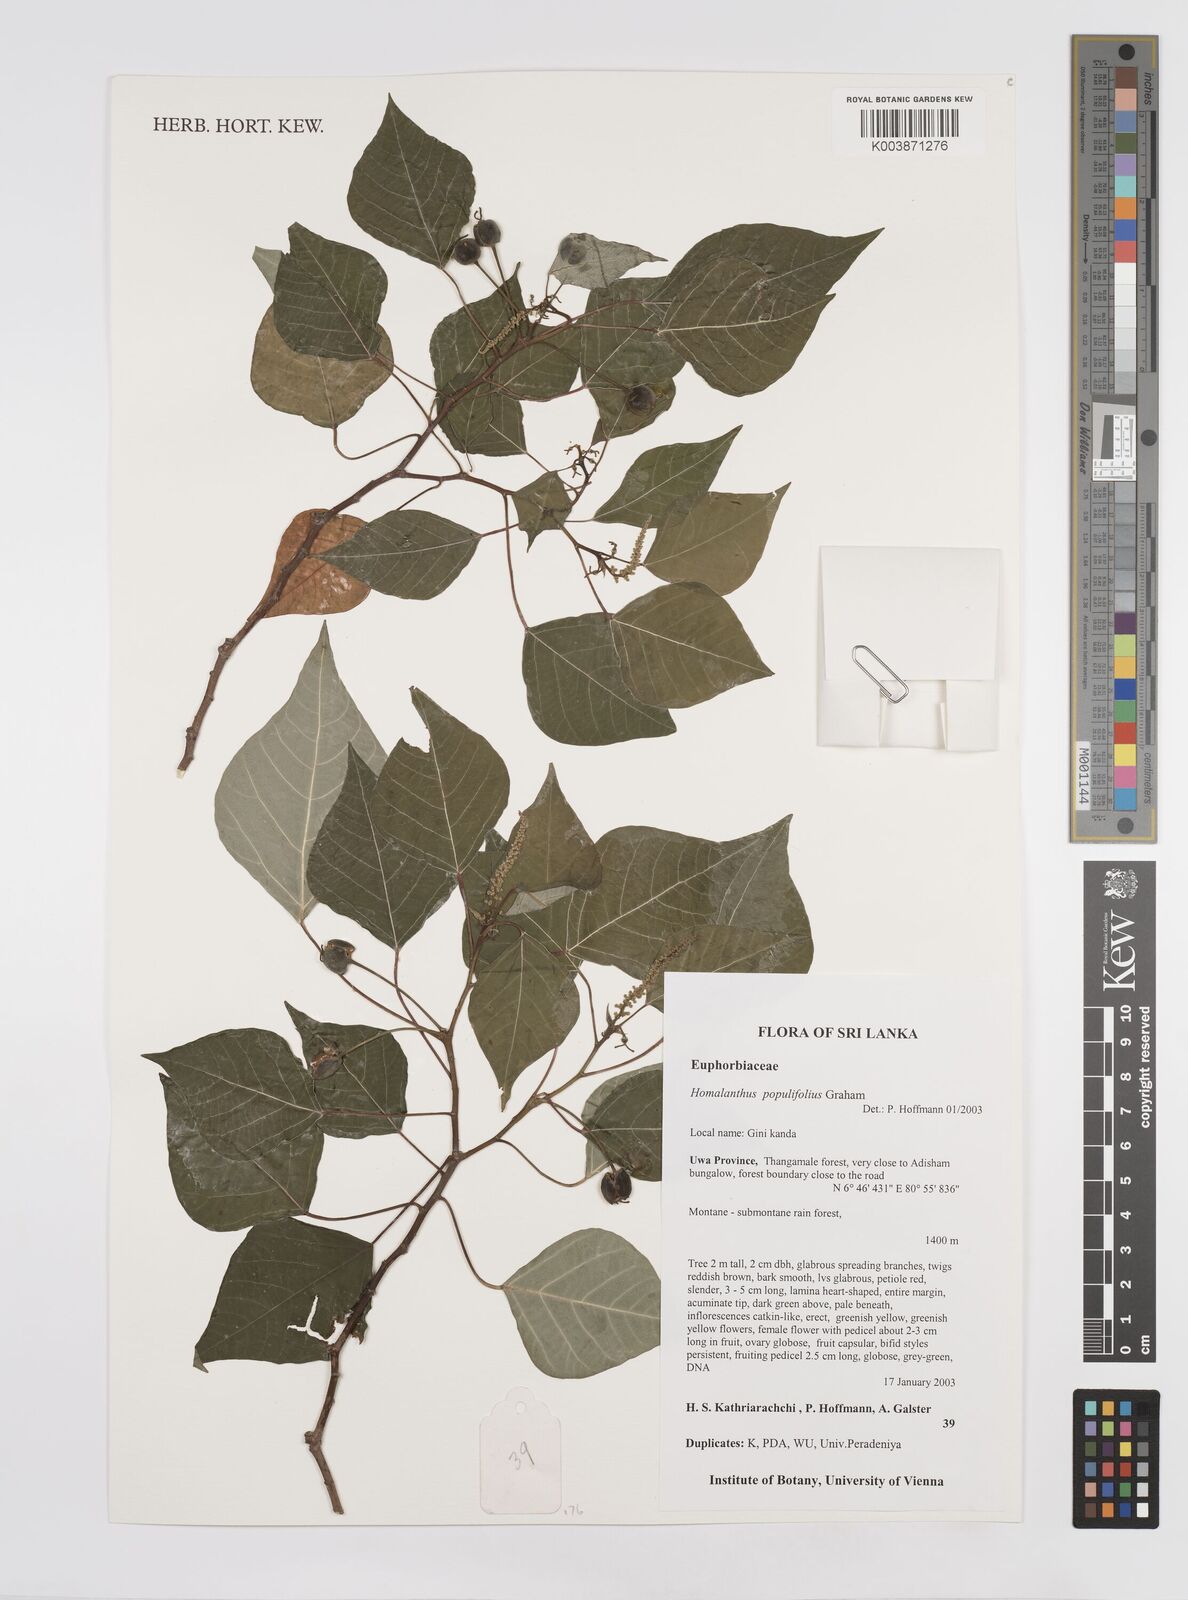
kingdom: Plantae
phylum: Tracheophyta
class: Magnoliopsida
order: Malpighiales
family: Euphorbiaceae
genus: Homalanthus
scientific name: Homalanthus populneus
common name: Spurge
